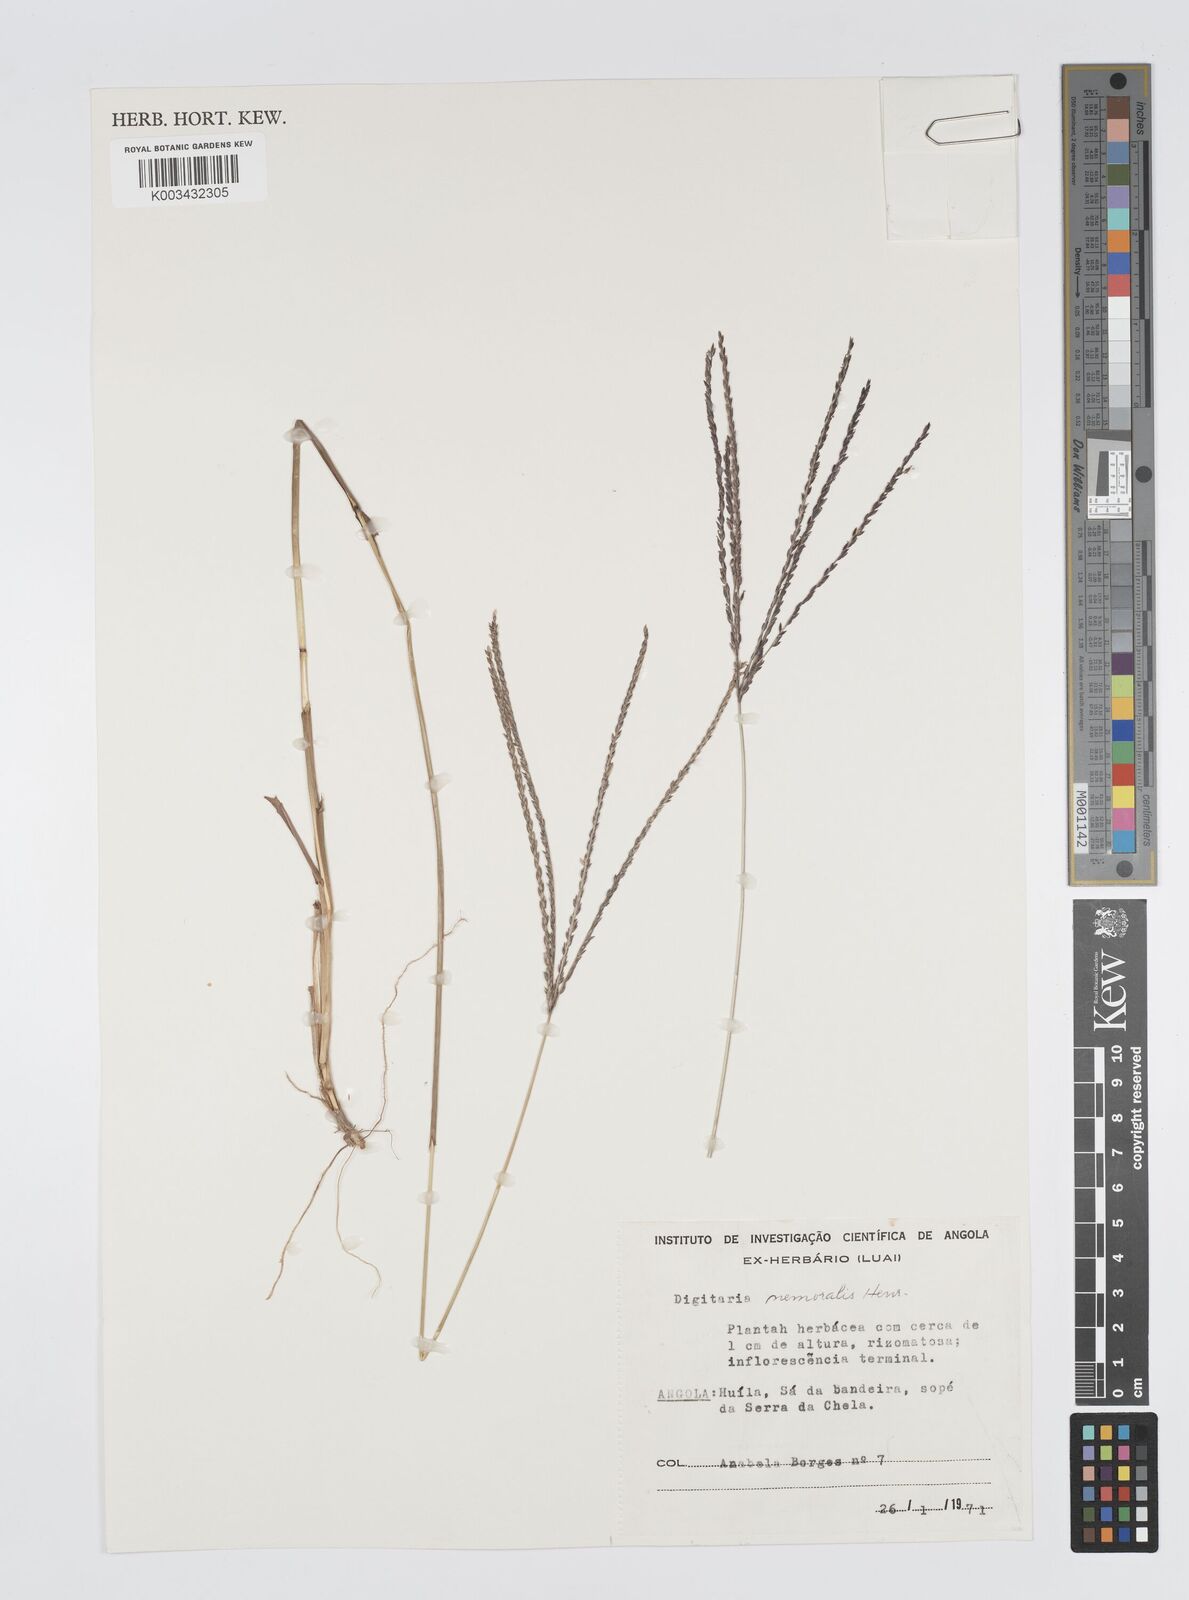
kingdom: Plantae
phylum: Tracheophyta
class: Liliopsida
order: Poales
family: Poaceae
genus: Digitaria
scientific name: Digitaria seriata
